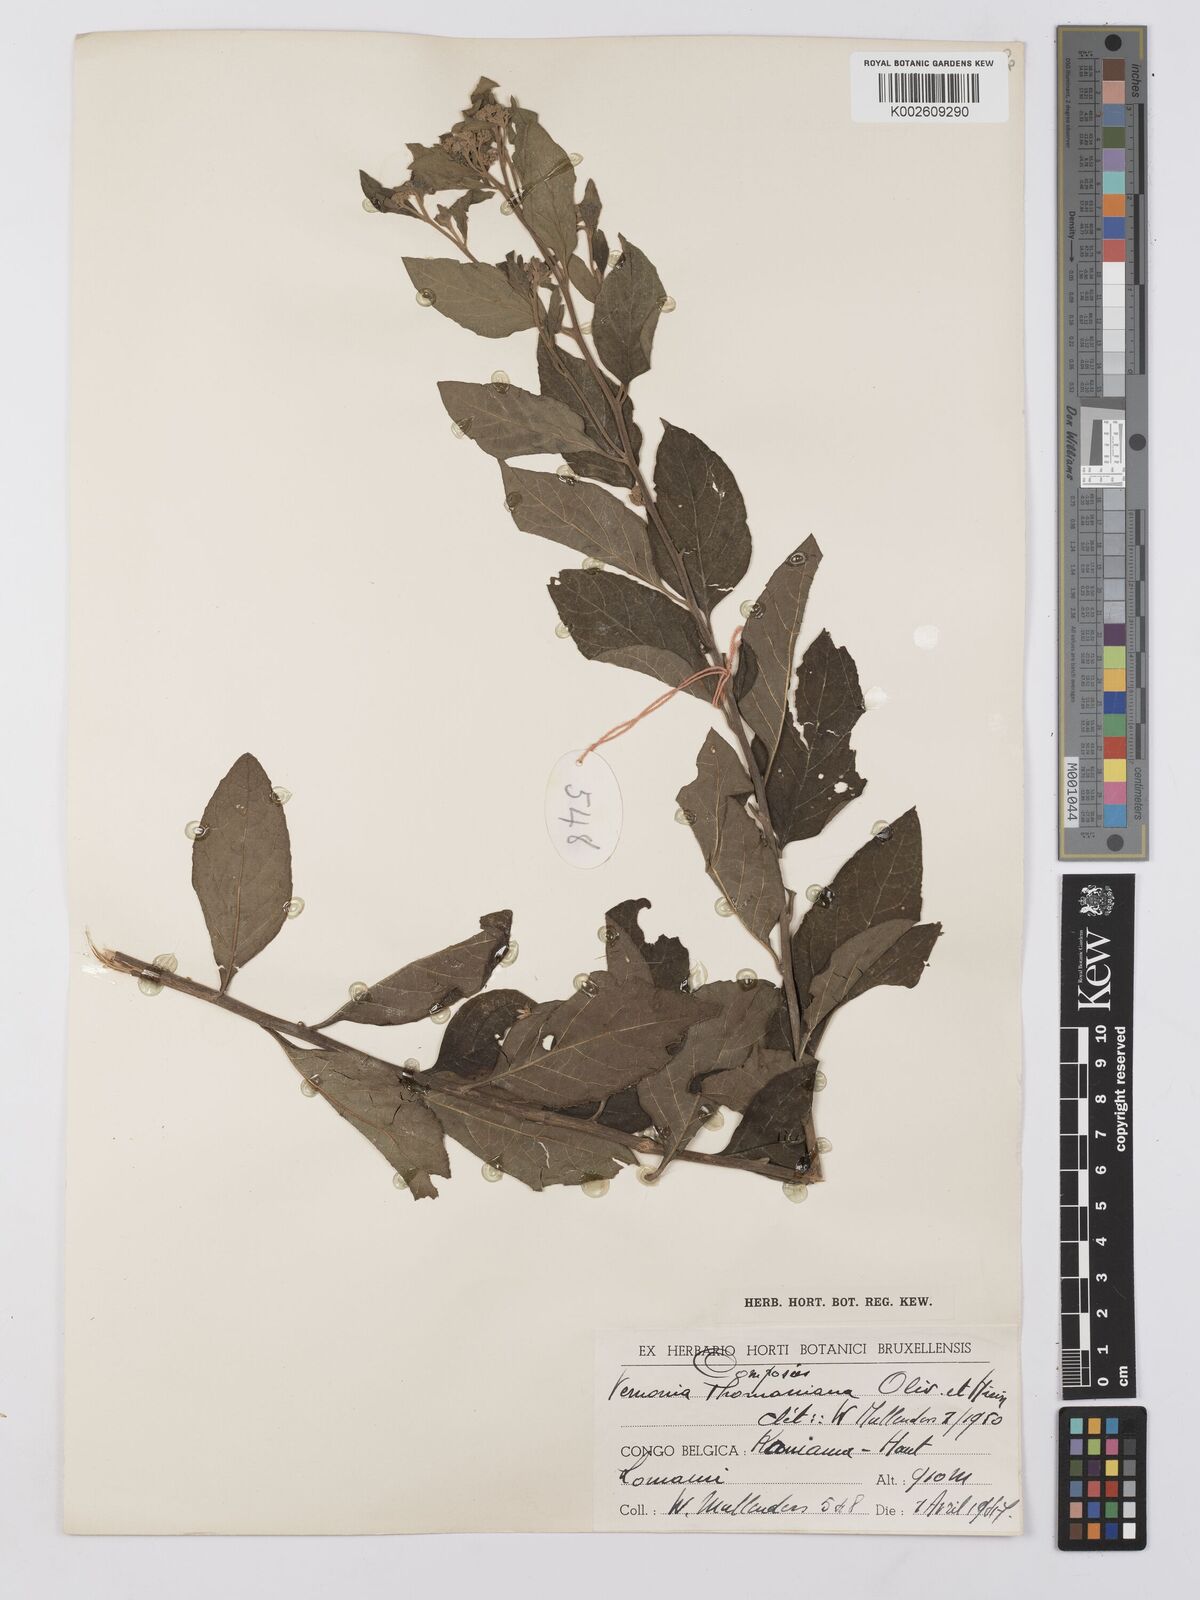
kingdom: Plantae
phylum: Tracheophyta
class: Magnoliopsida
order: Asterales
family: Asteraceae
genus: Gymnanthemum
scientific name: Gymnanthemum thomsonianum
